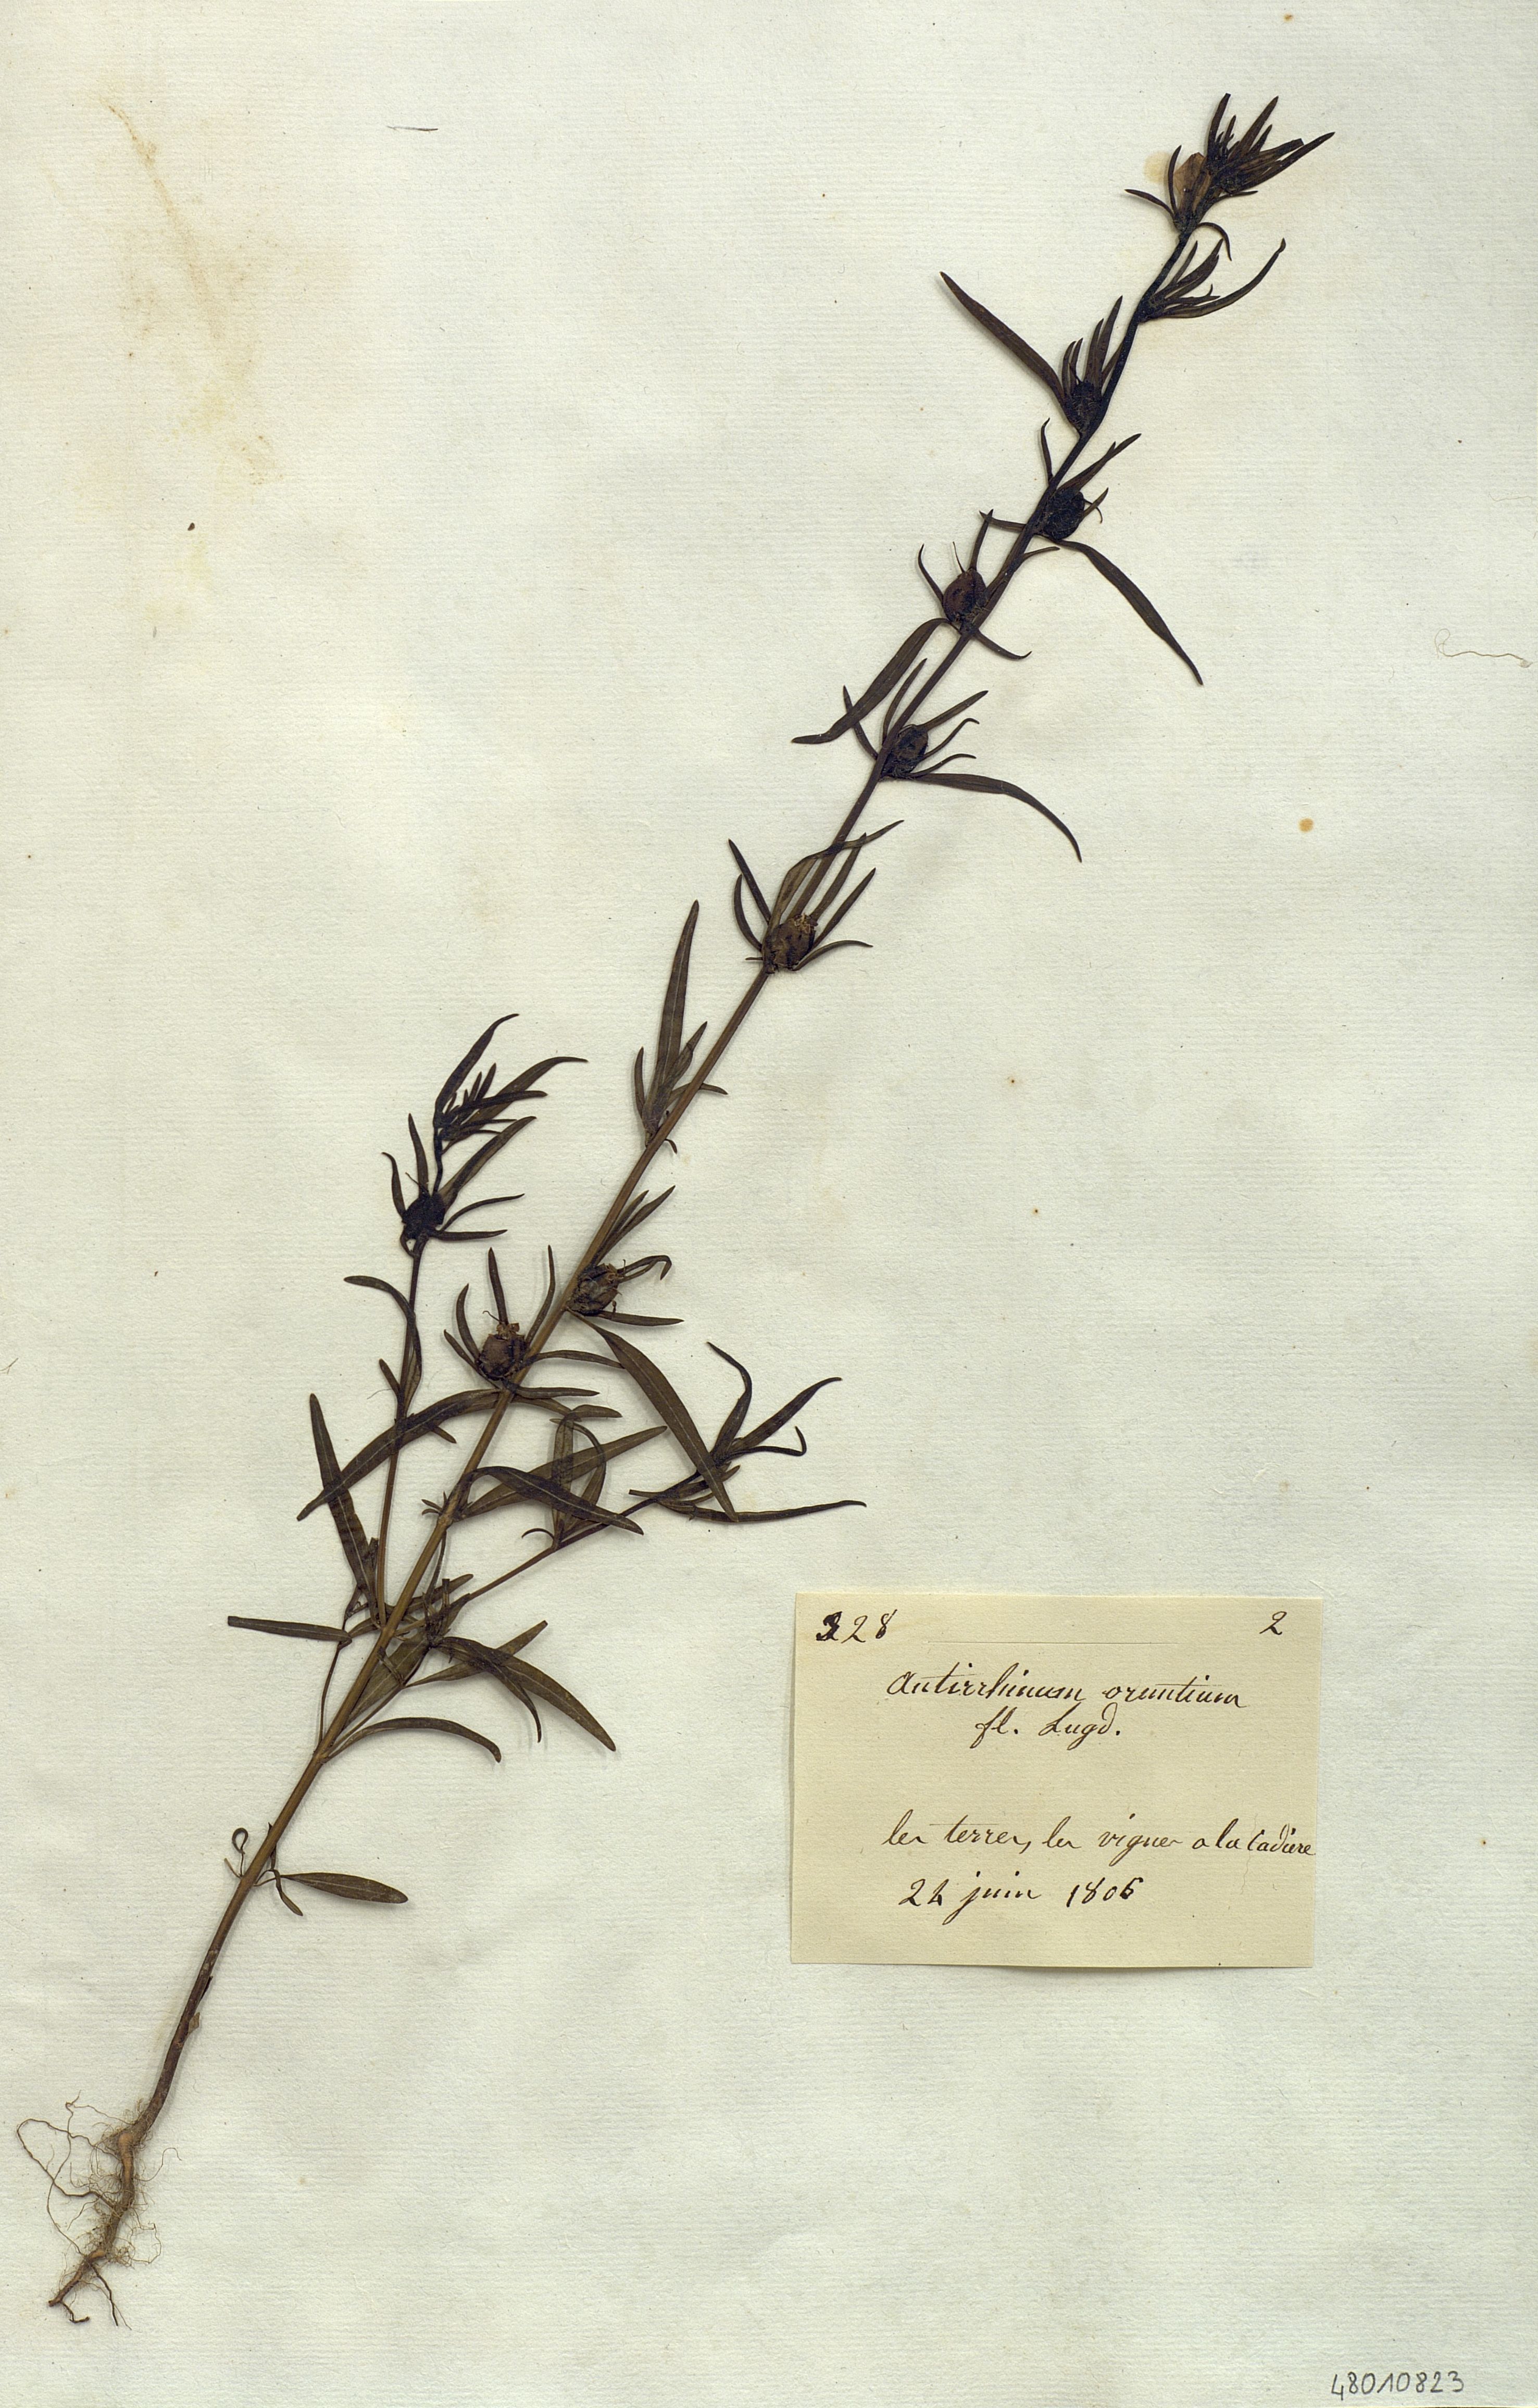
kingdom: Plantae
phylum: Tracheophyta
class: Magnoliopsida
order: Lamiales
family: Plantaginaceae
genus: Misopates
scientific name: Misopates orontium
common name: Weasel's-snout
